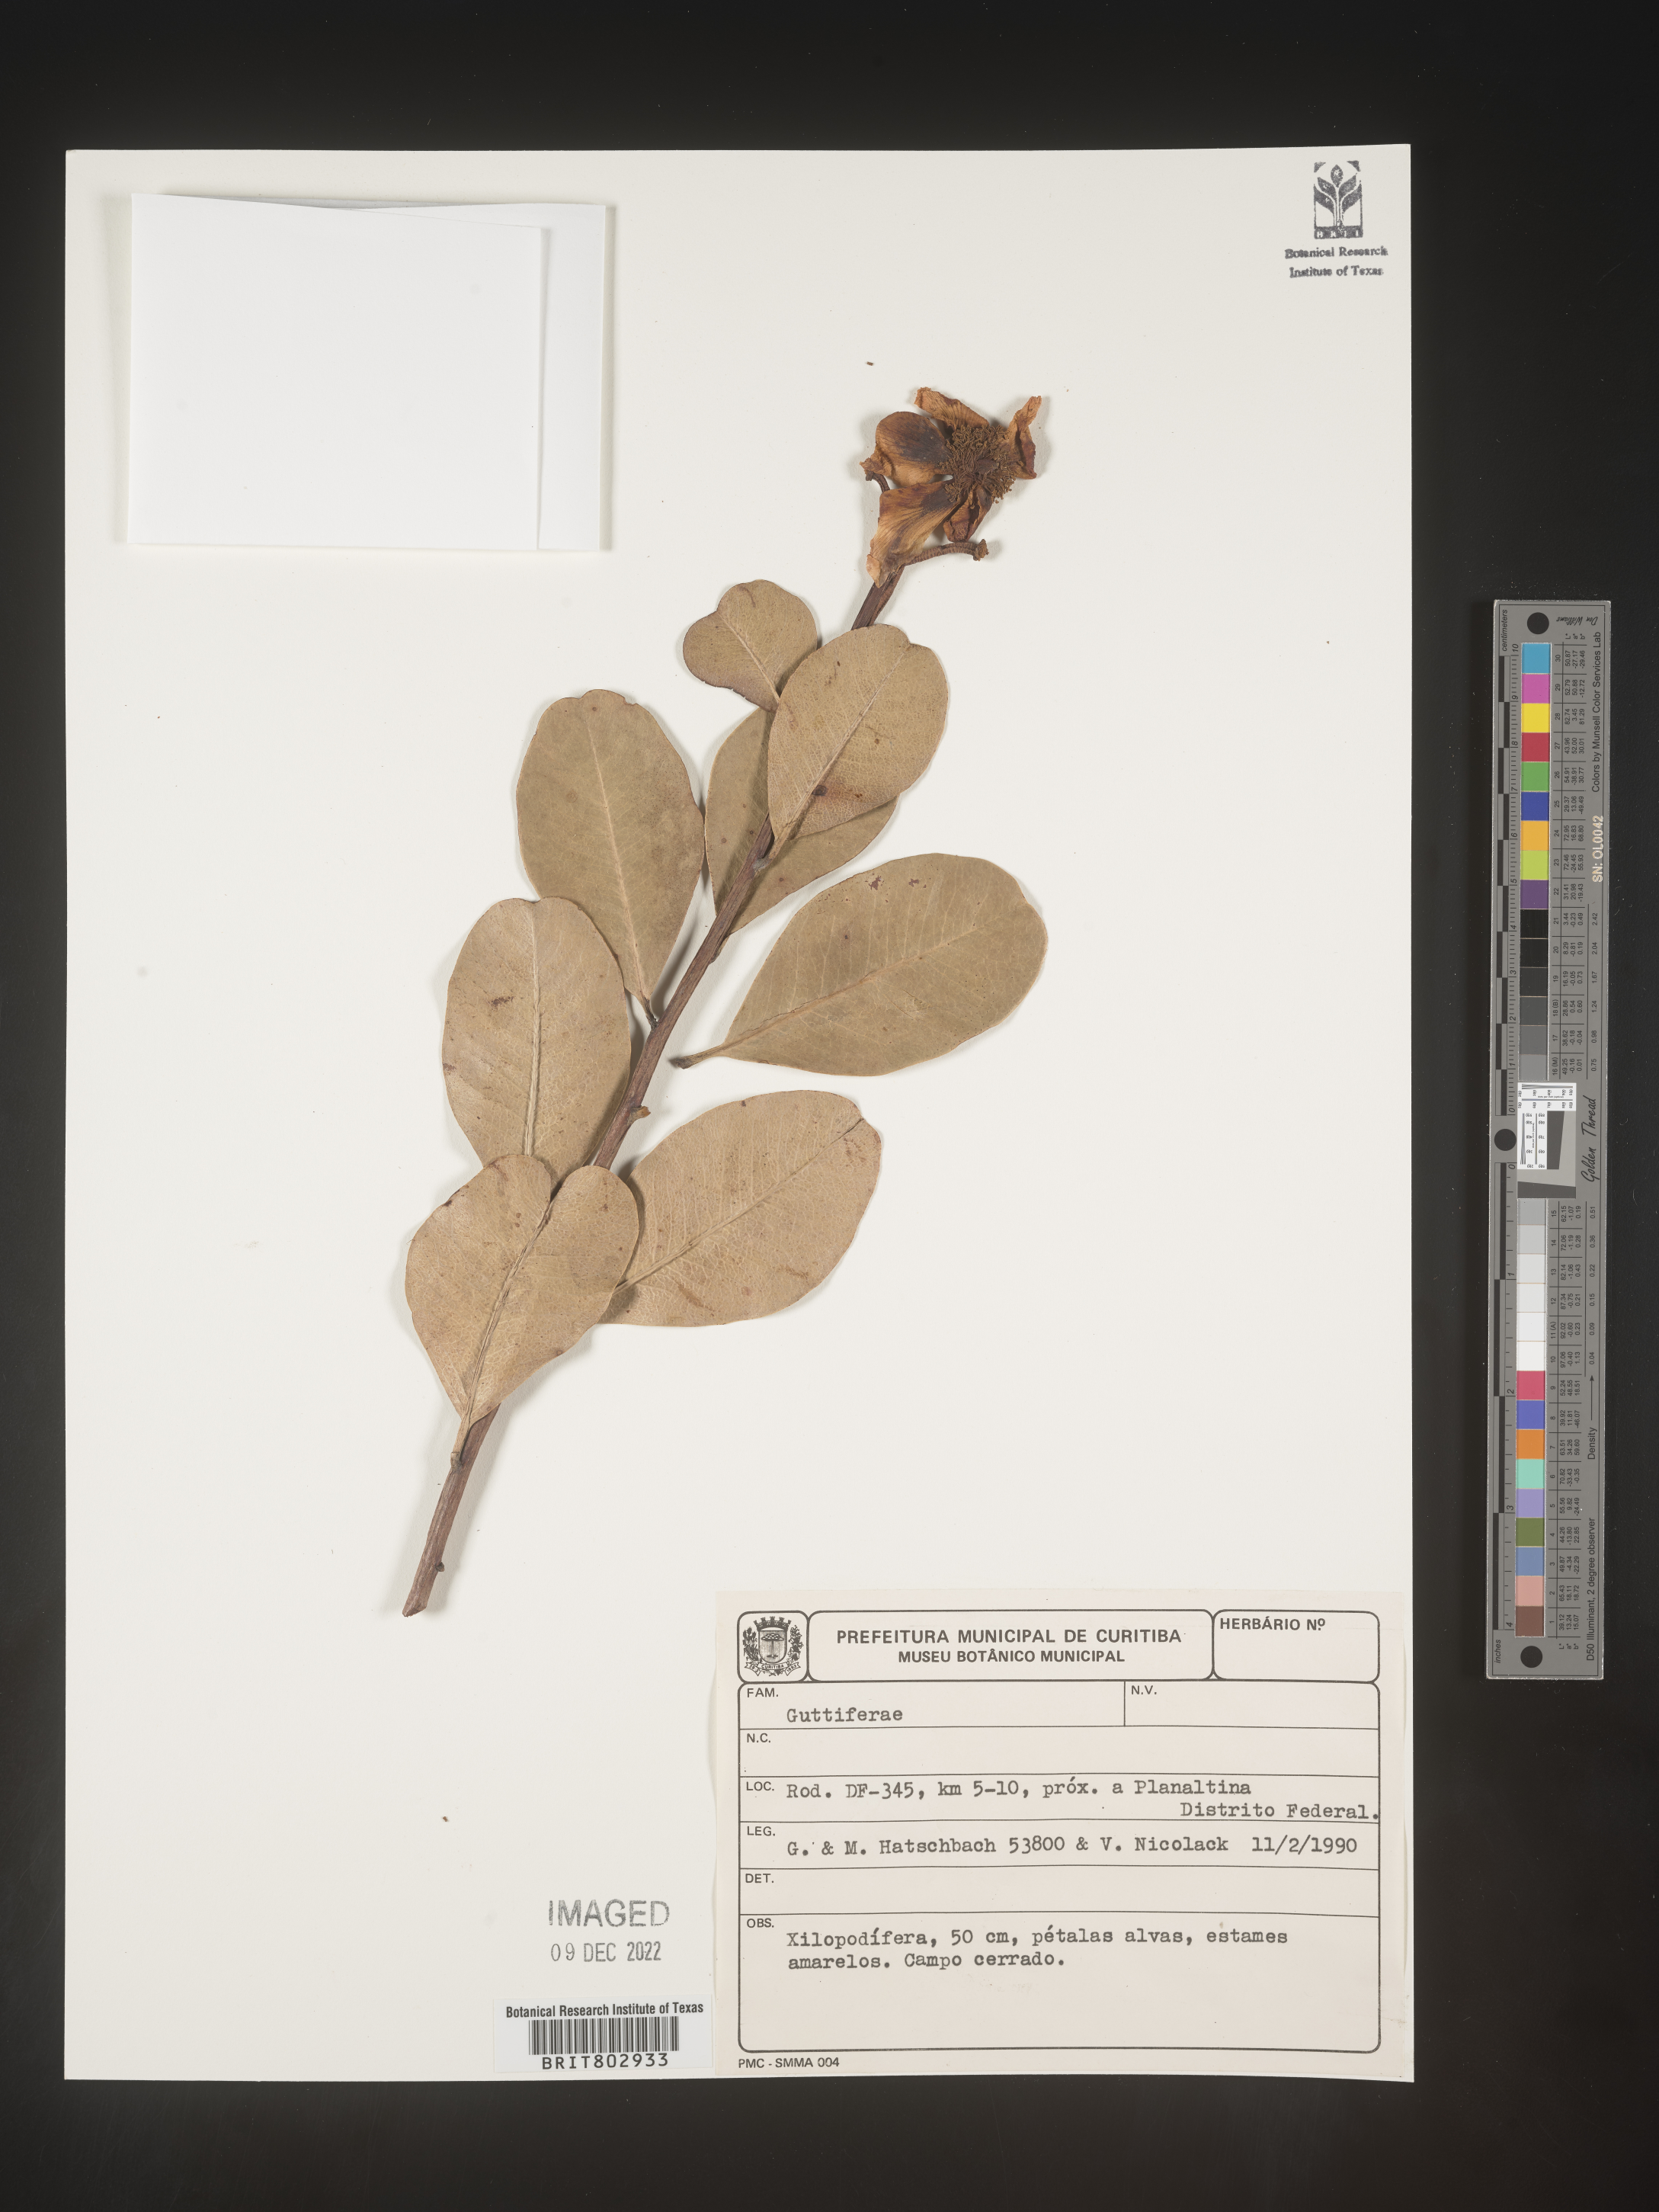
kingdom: Plantae
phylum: Tracheophyta
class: Magnoliopsida
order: Malpighiales
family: Calophyllaceae
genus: Kielmeyera
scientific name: Kielmeyera
